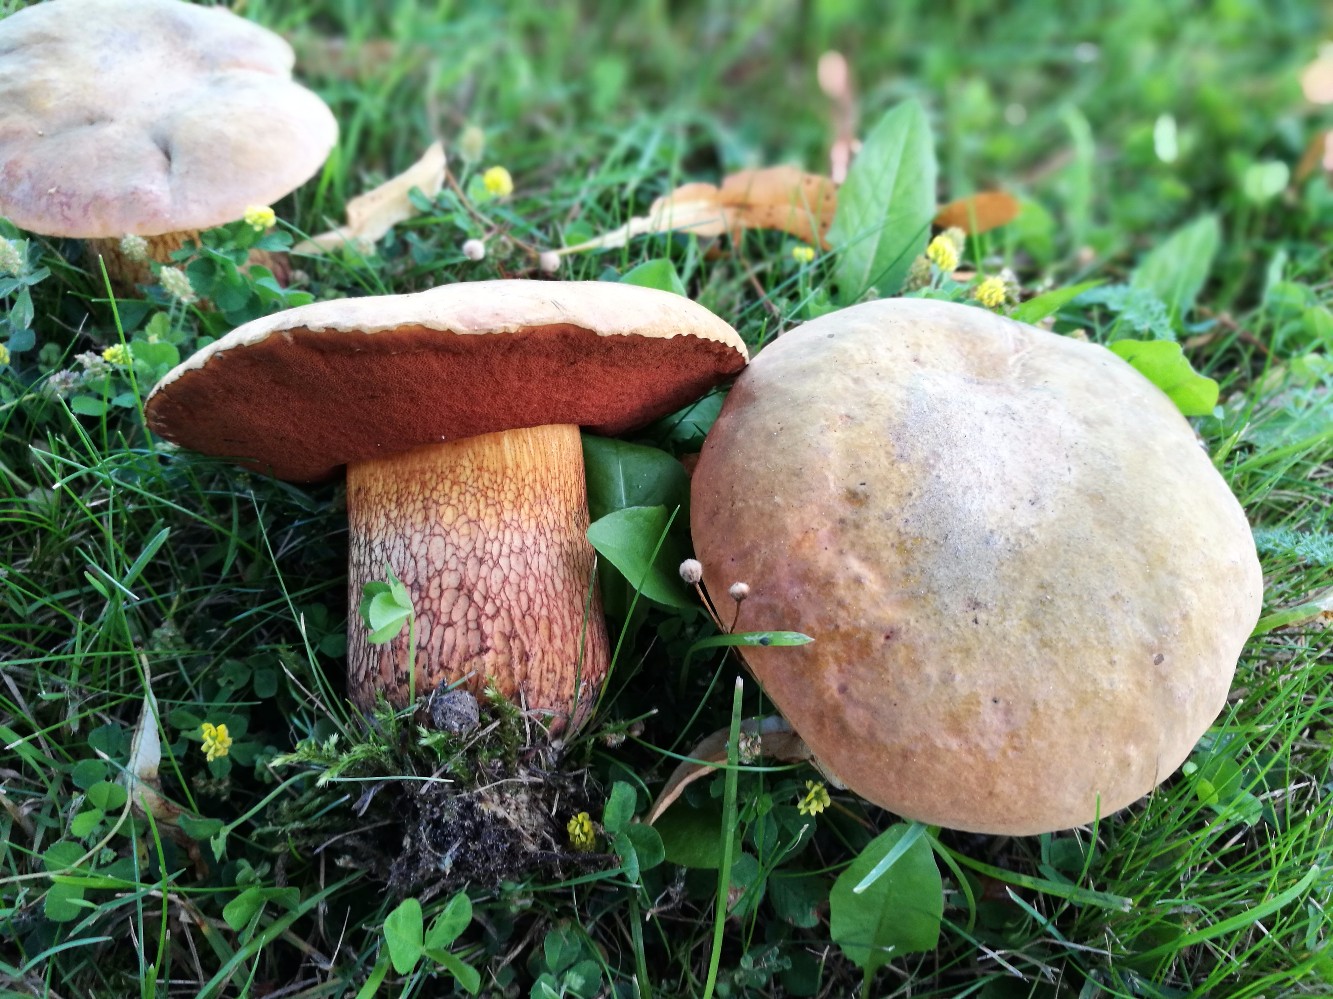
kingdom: Fungi
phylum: Basidiomycota
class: Agaricomycetes
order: Boletales
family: Boletaceae
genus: Suillellus
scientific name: Suillellus luridus
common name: netstokket indigorørhat
